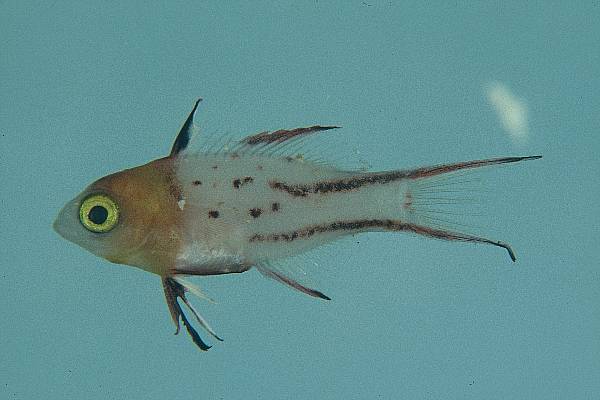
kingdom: Animalia
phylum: Chordata
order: Perciformes
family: Labridae
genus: Bodianus
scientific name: Bodianus anthioides
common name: Lyretail hogfish
